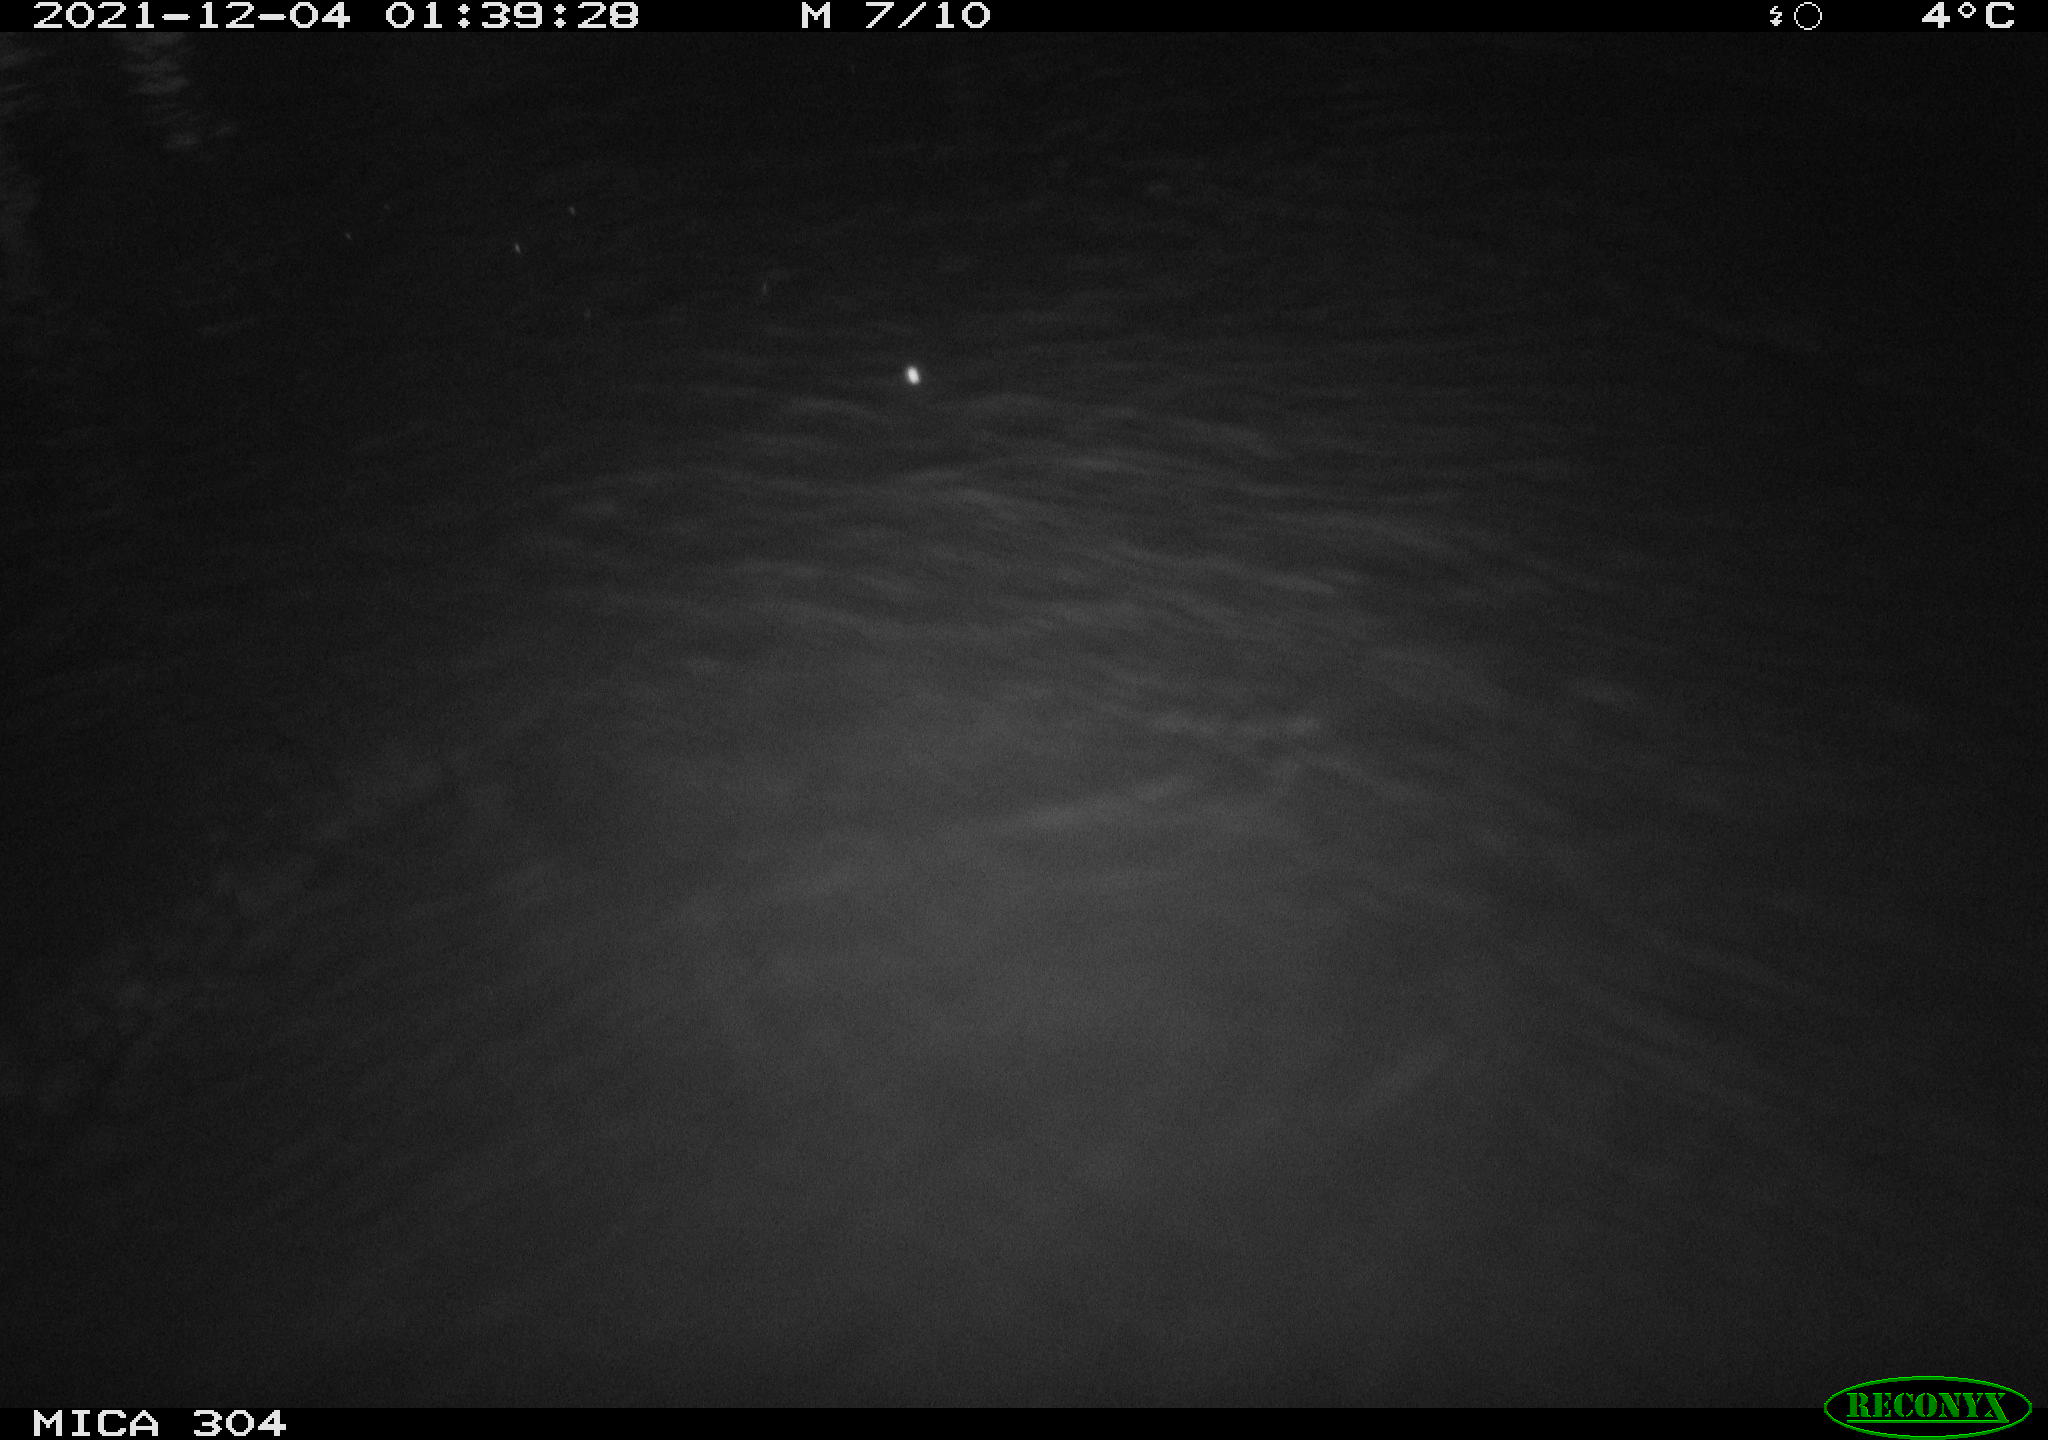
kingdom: Animalia
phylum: Chordata
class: Mammalia
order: Rodentia
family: Cricetidae
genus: Ondatra
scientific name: Ondatra zibethicus
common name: Muskrat
